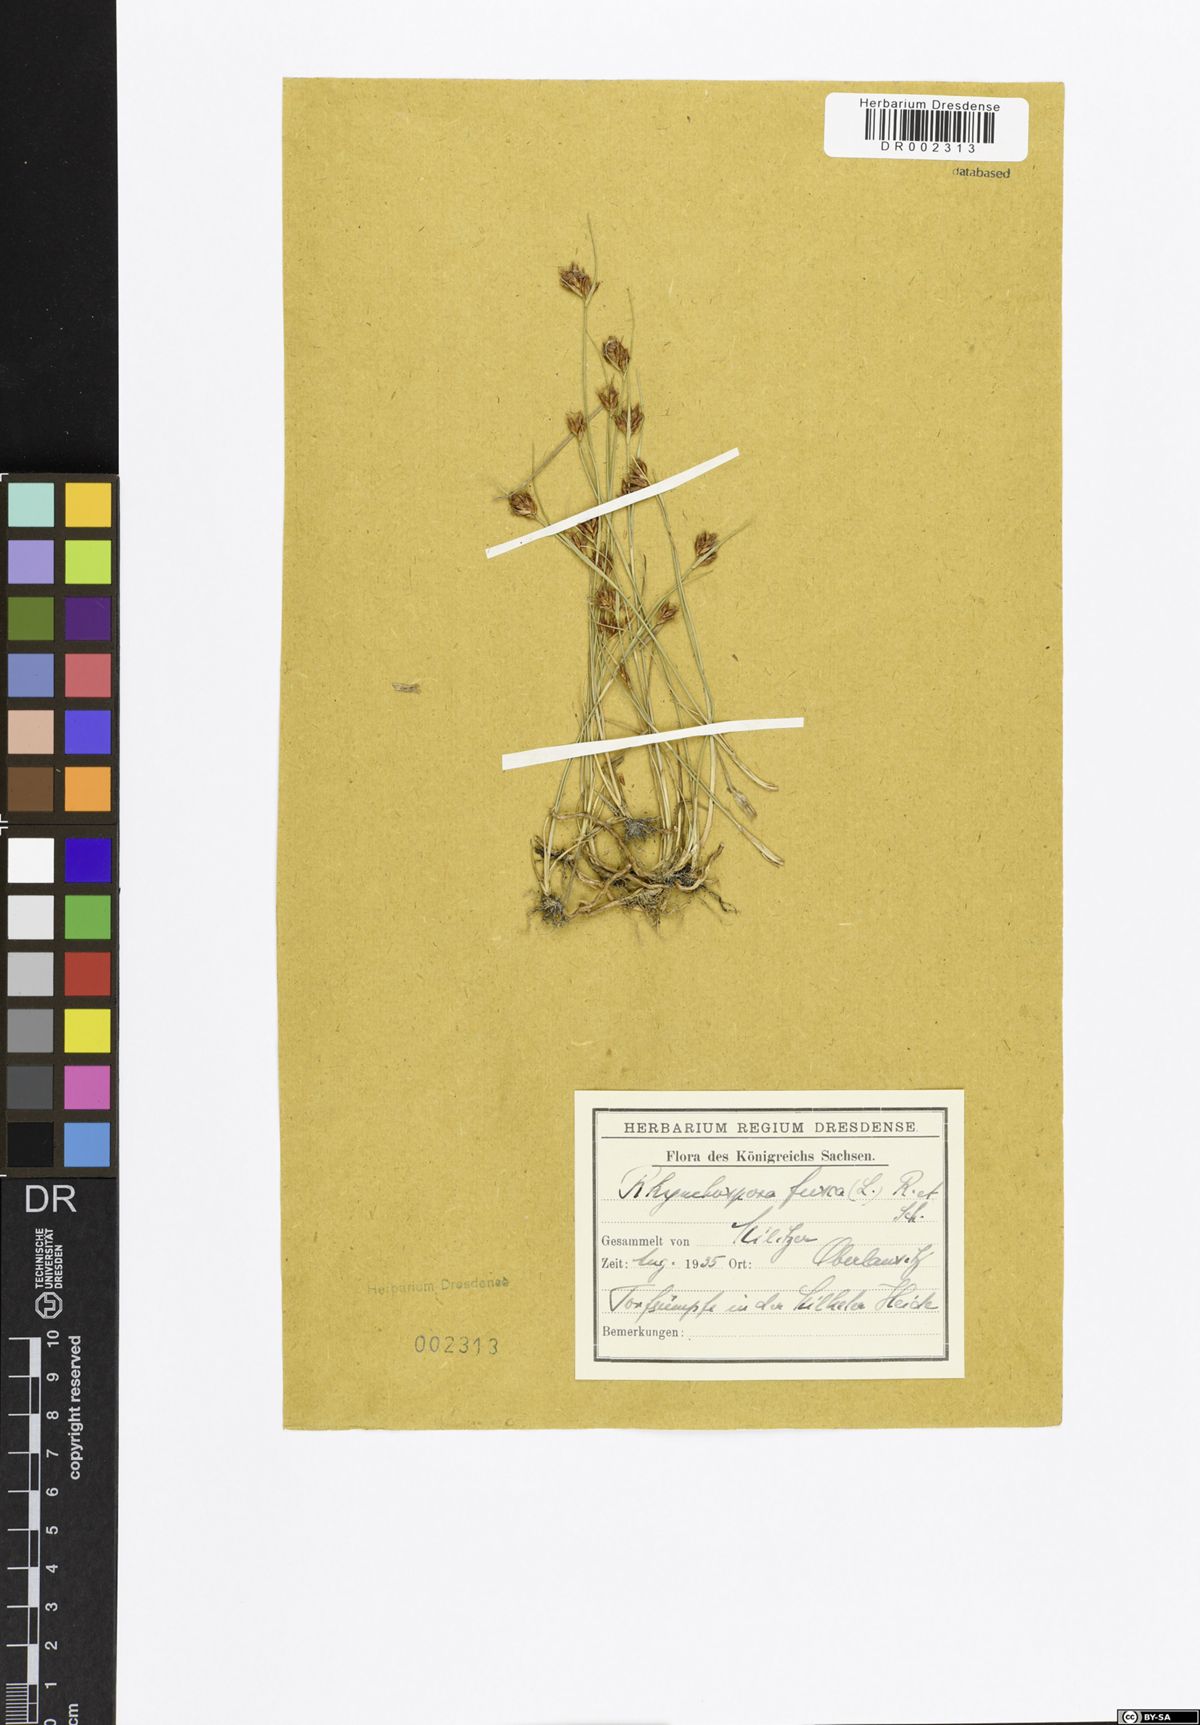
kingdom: Plantae
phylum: Tracheophyta
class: Liliopsida
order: Poales
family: Cyperaceae
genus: Rhynchospora
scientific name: Rhynchospora fusca
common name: Brown beak-sedge
